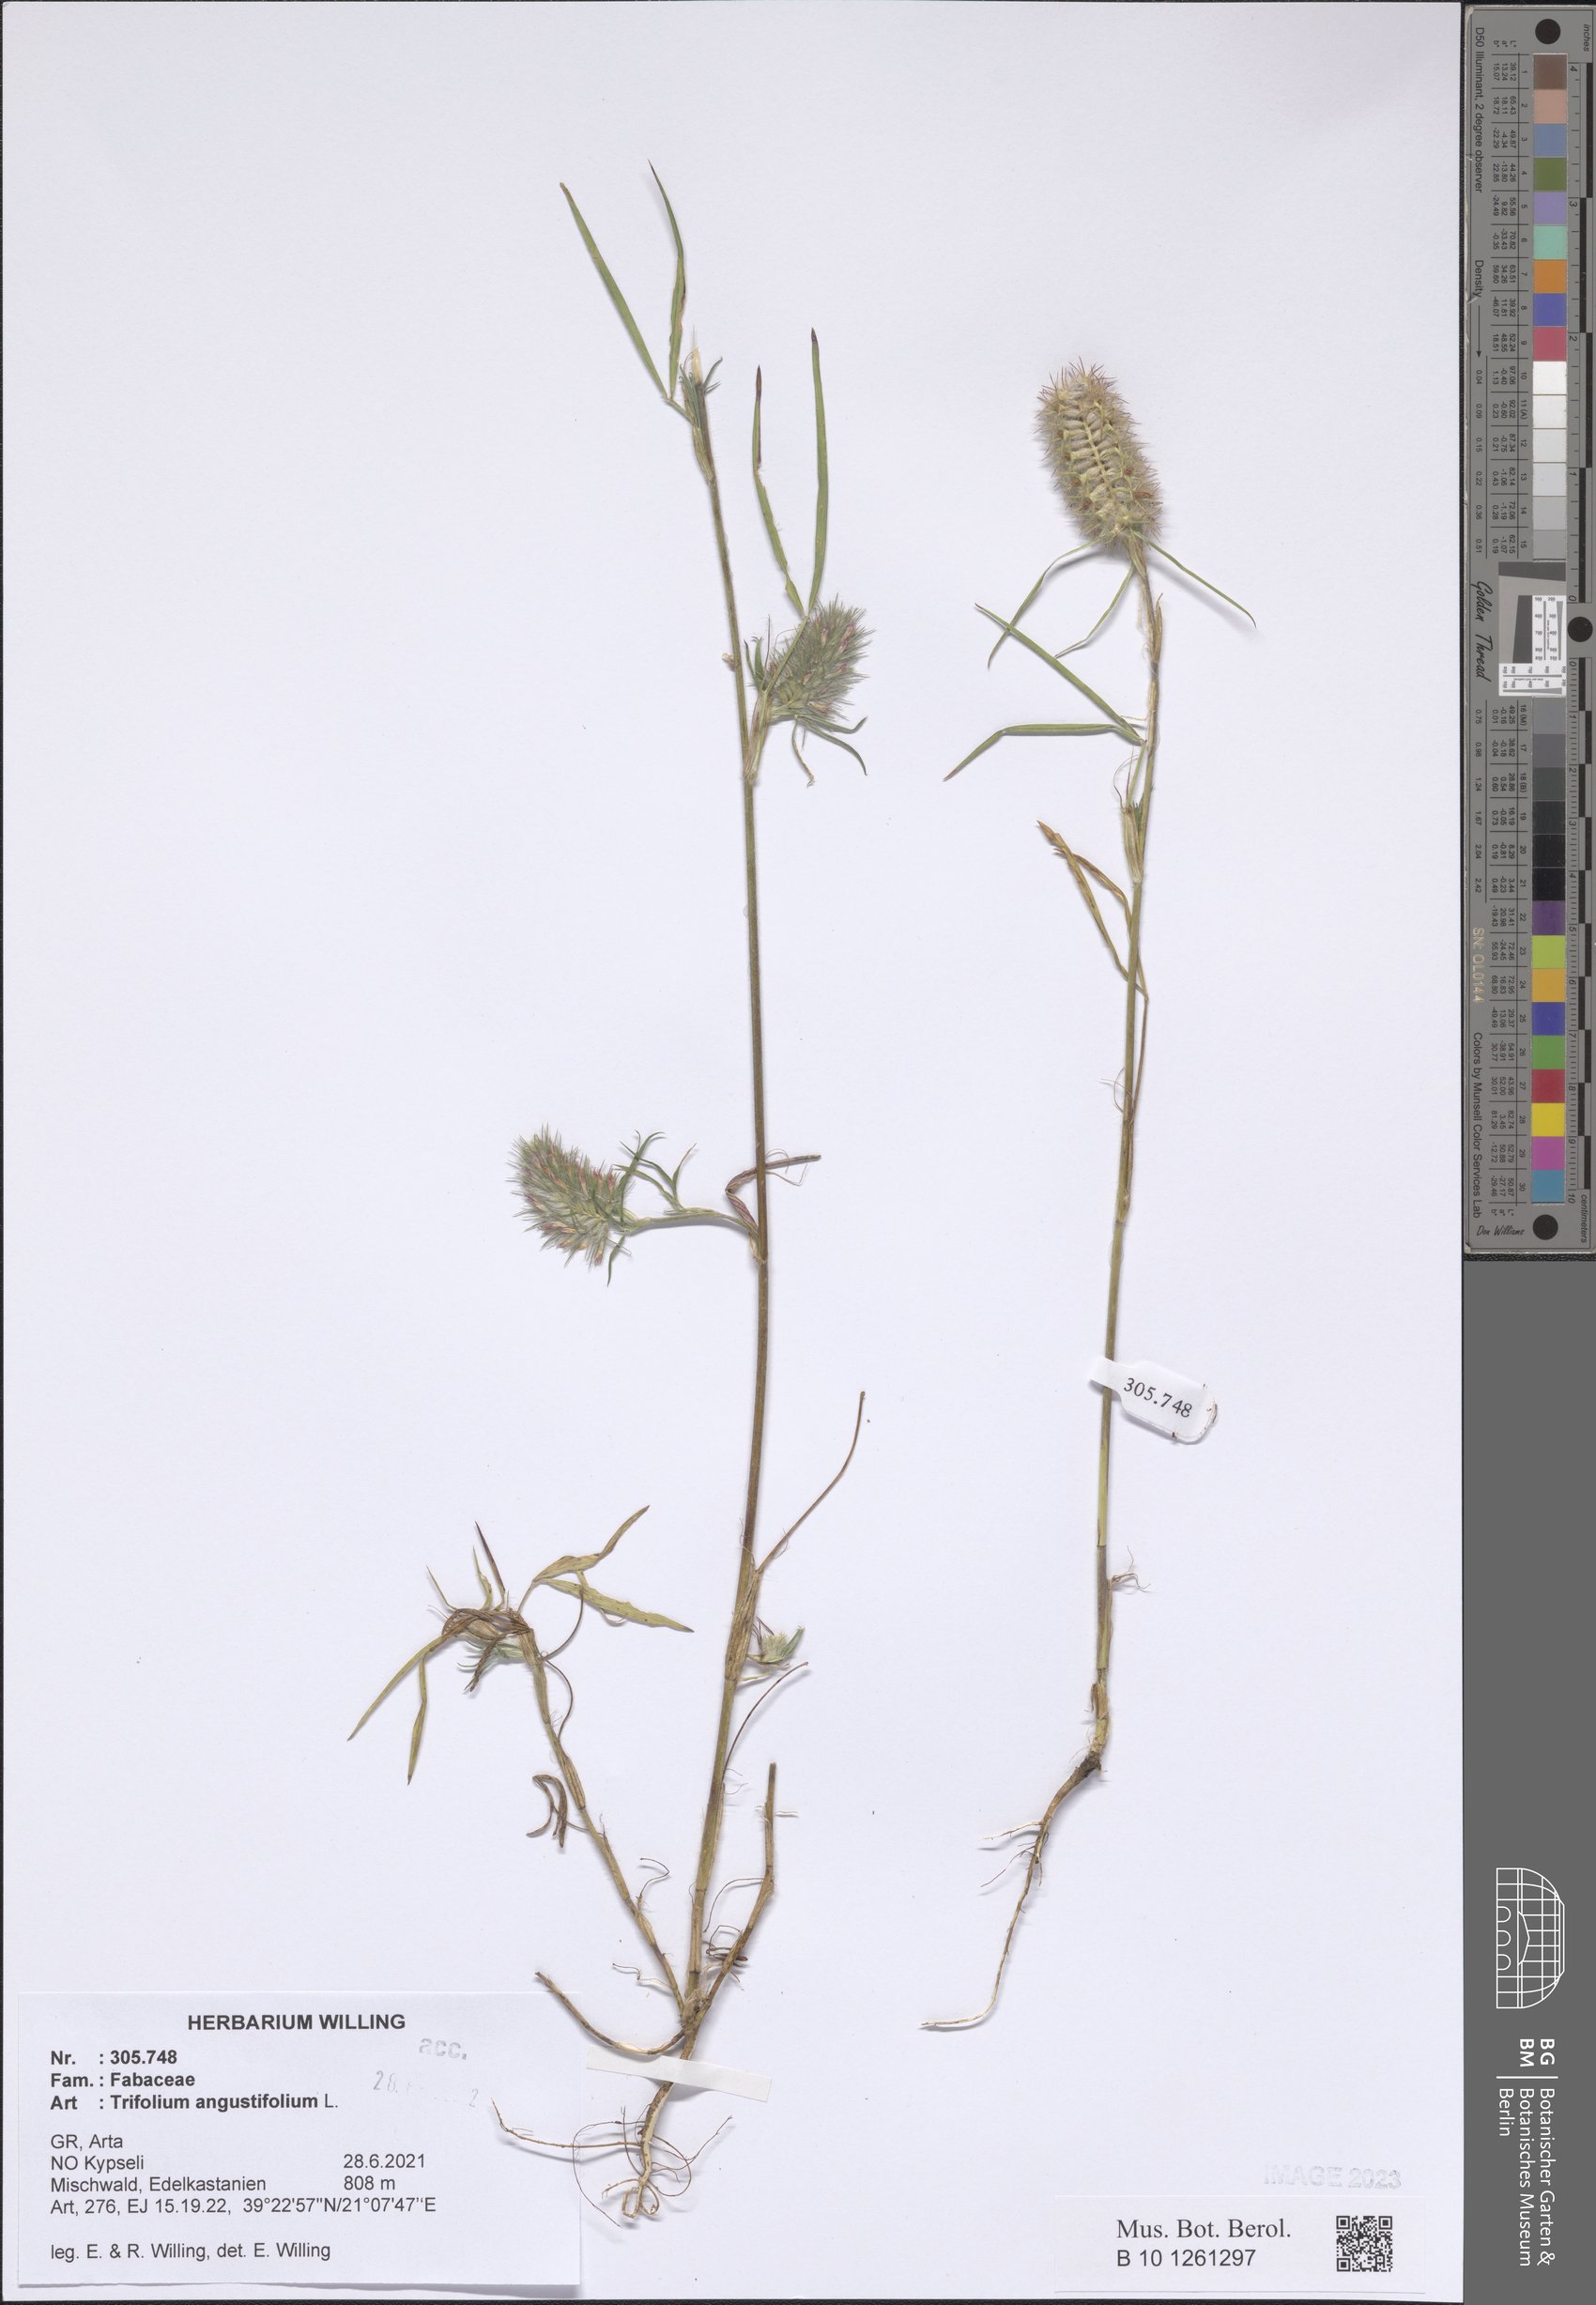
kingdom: Plantae
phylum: Tracheophyta
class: Magnoliopsida
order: Fabales
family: Fabaceae
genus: Trifolium
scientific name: Trifolium angustifolium
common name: Narrow clover
